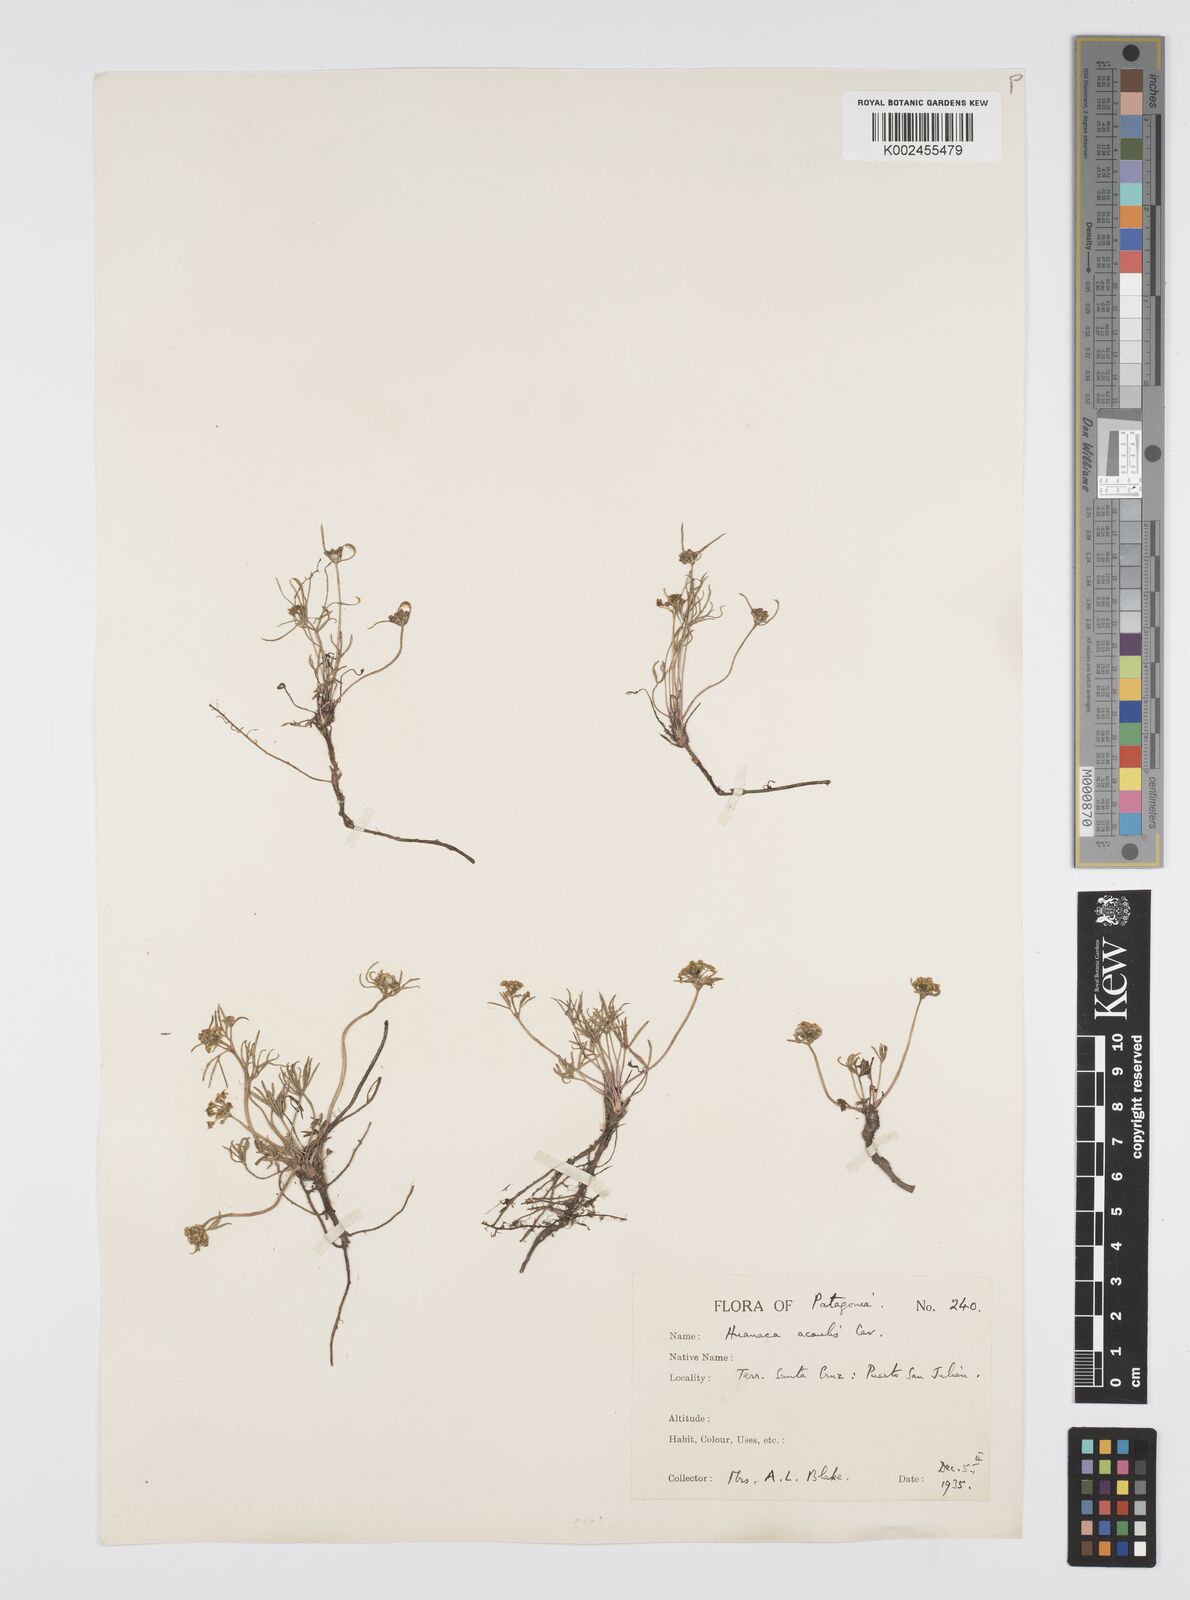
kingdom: Plantae
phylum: Tracheophyta
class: Magnoliopsida
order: Apiales
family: Apiaceae
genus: Azorella
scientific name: Azorella acaulis
